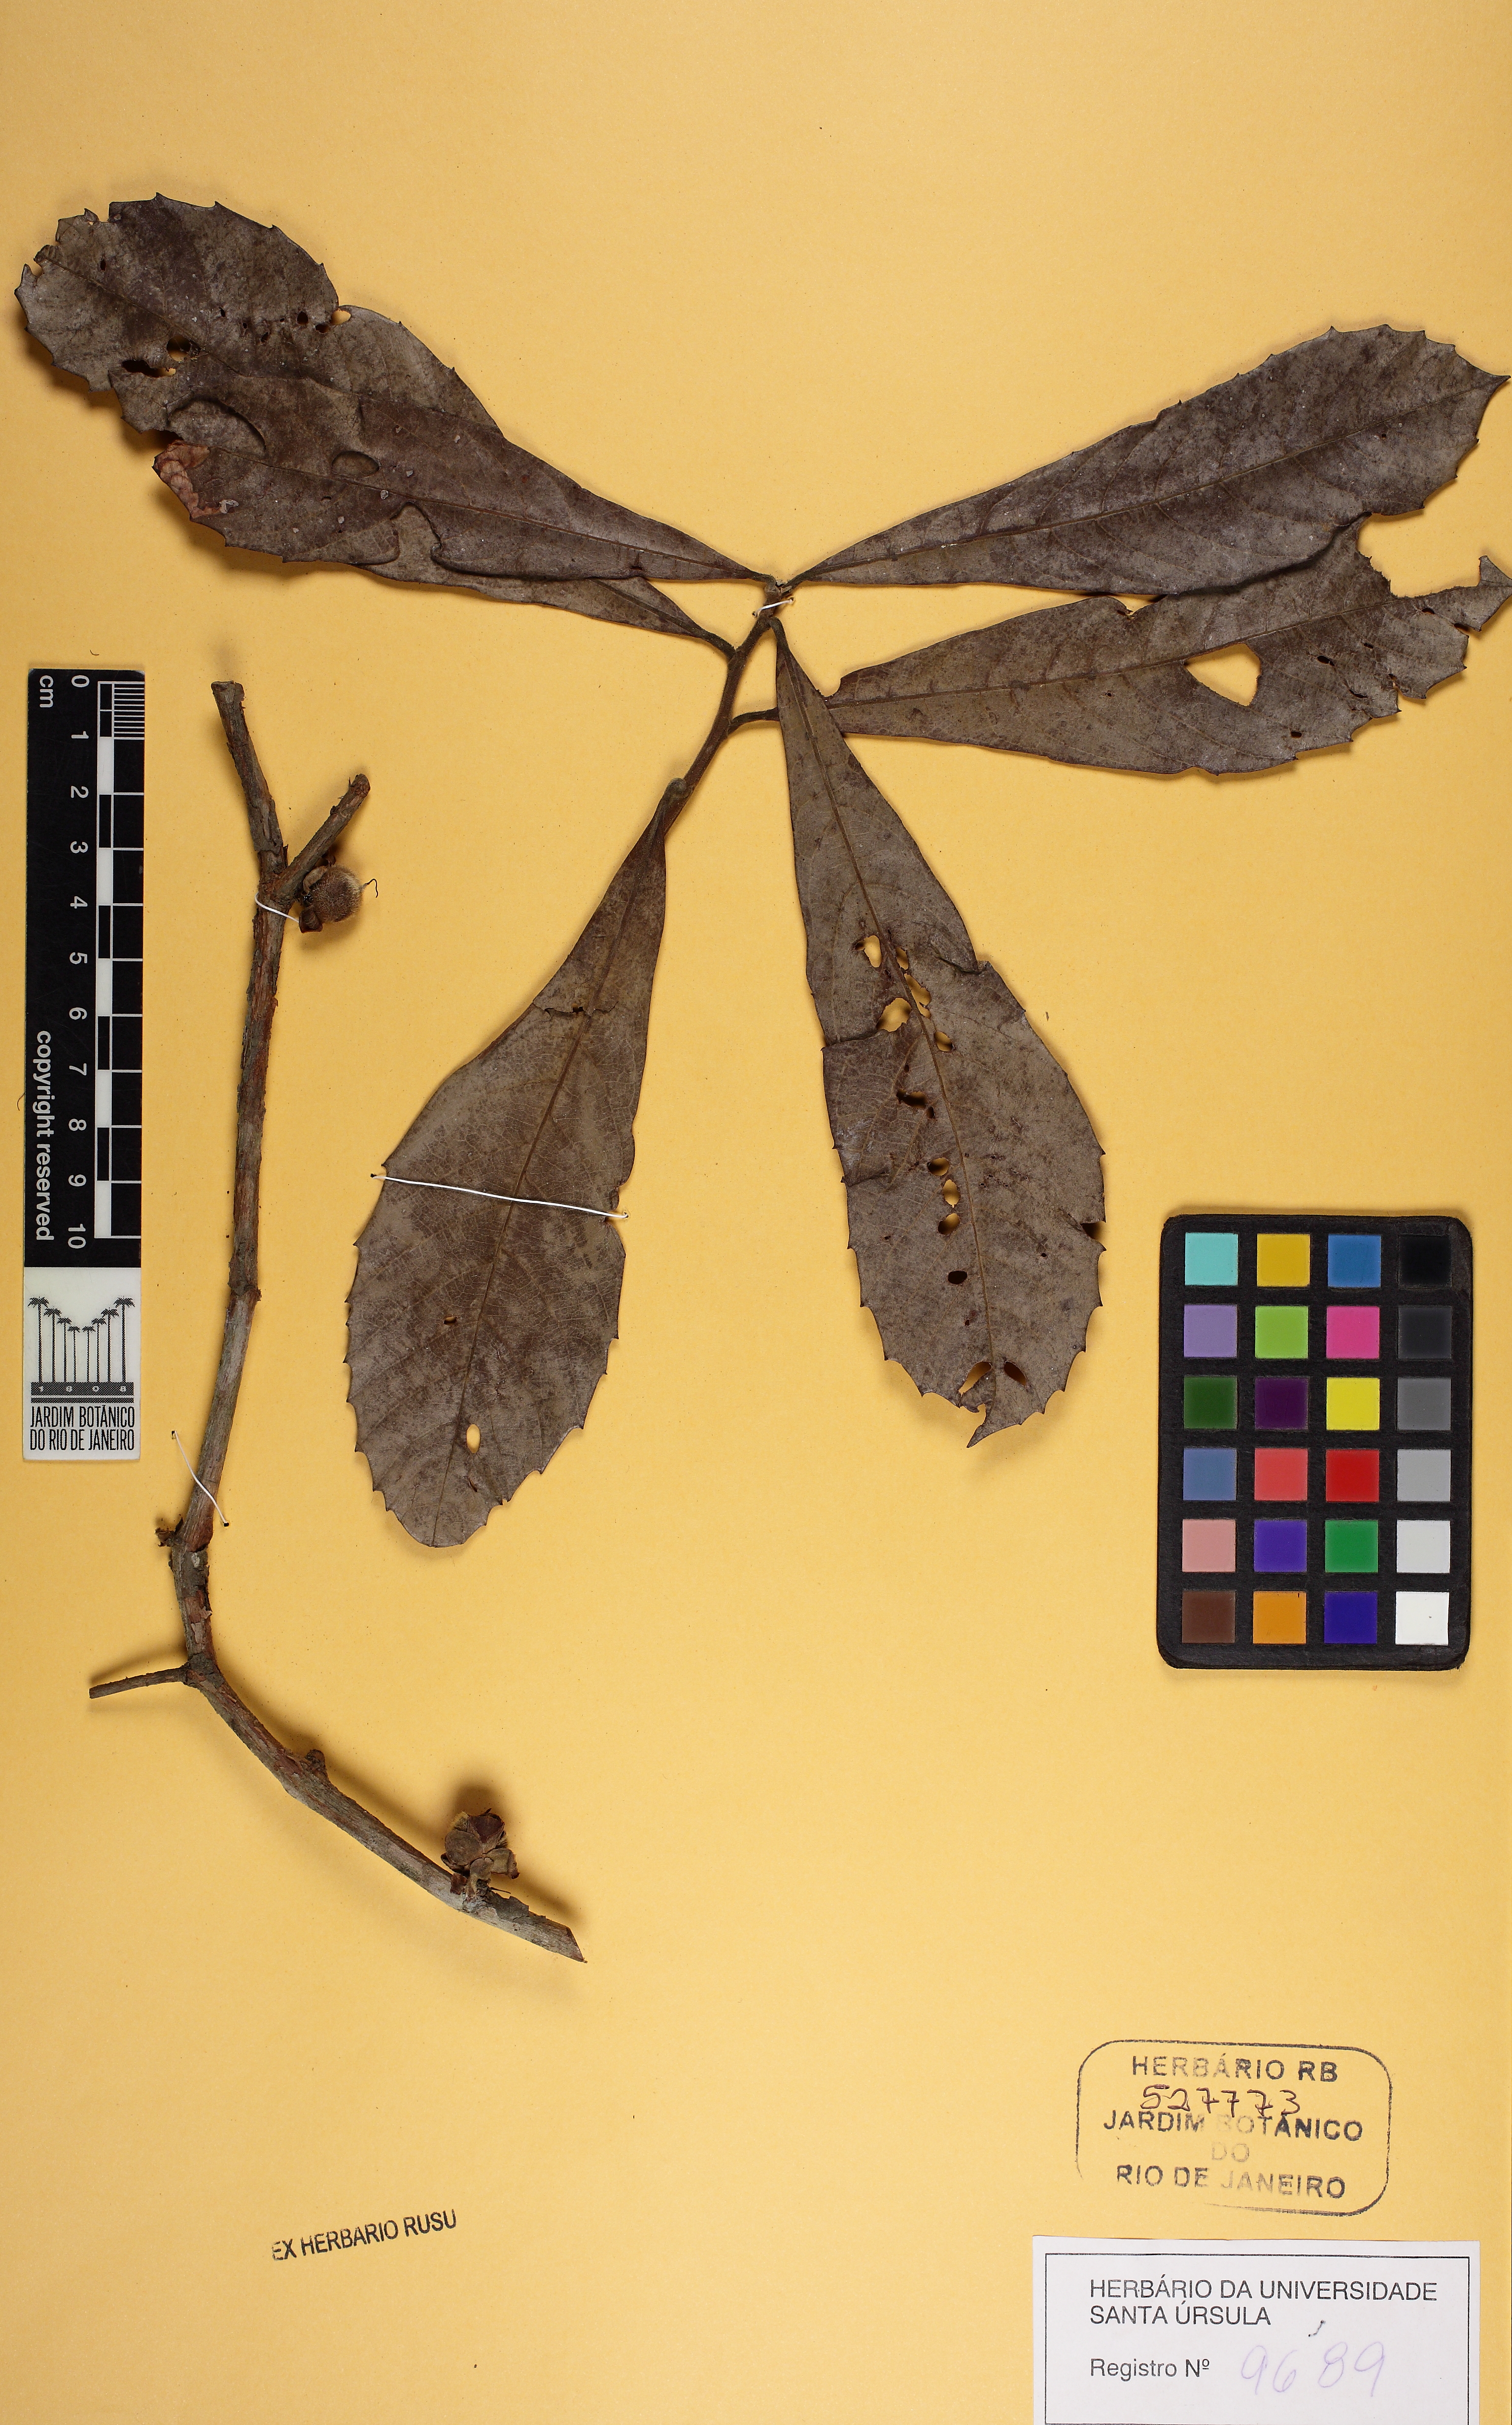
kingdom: Plantae
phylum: Tracheophyta
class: Magnoliopsida
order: Dilleniales
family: Dilleniaceae
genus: Doliocarpus
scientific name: Doliocarpus grandiflorus
